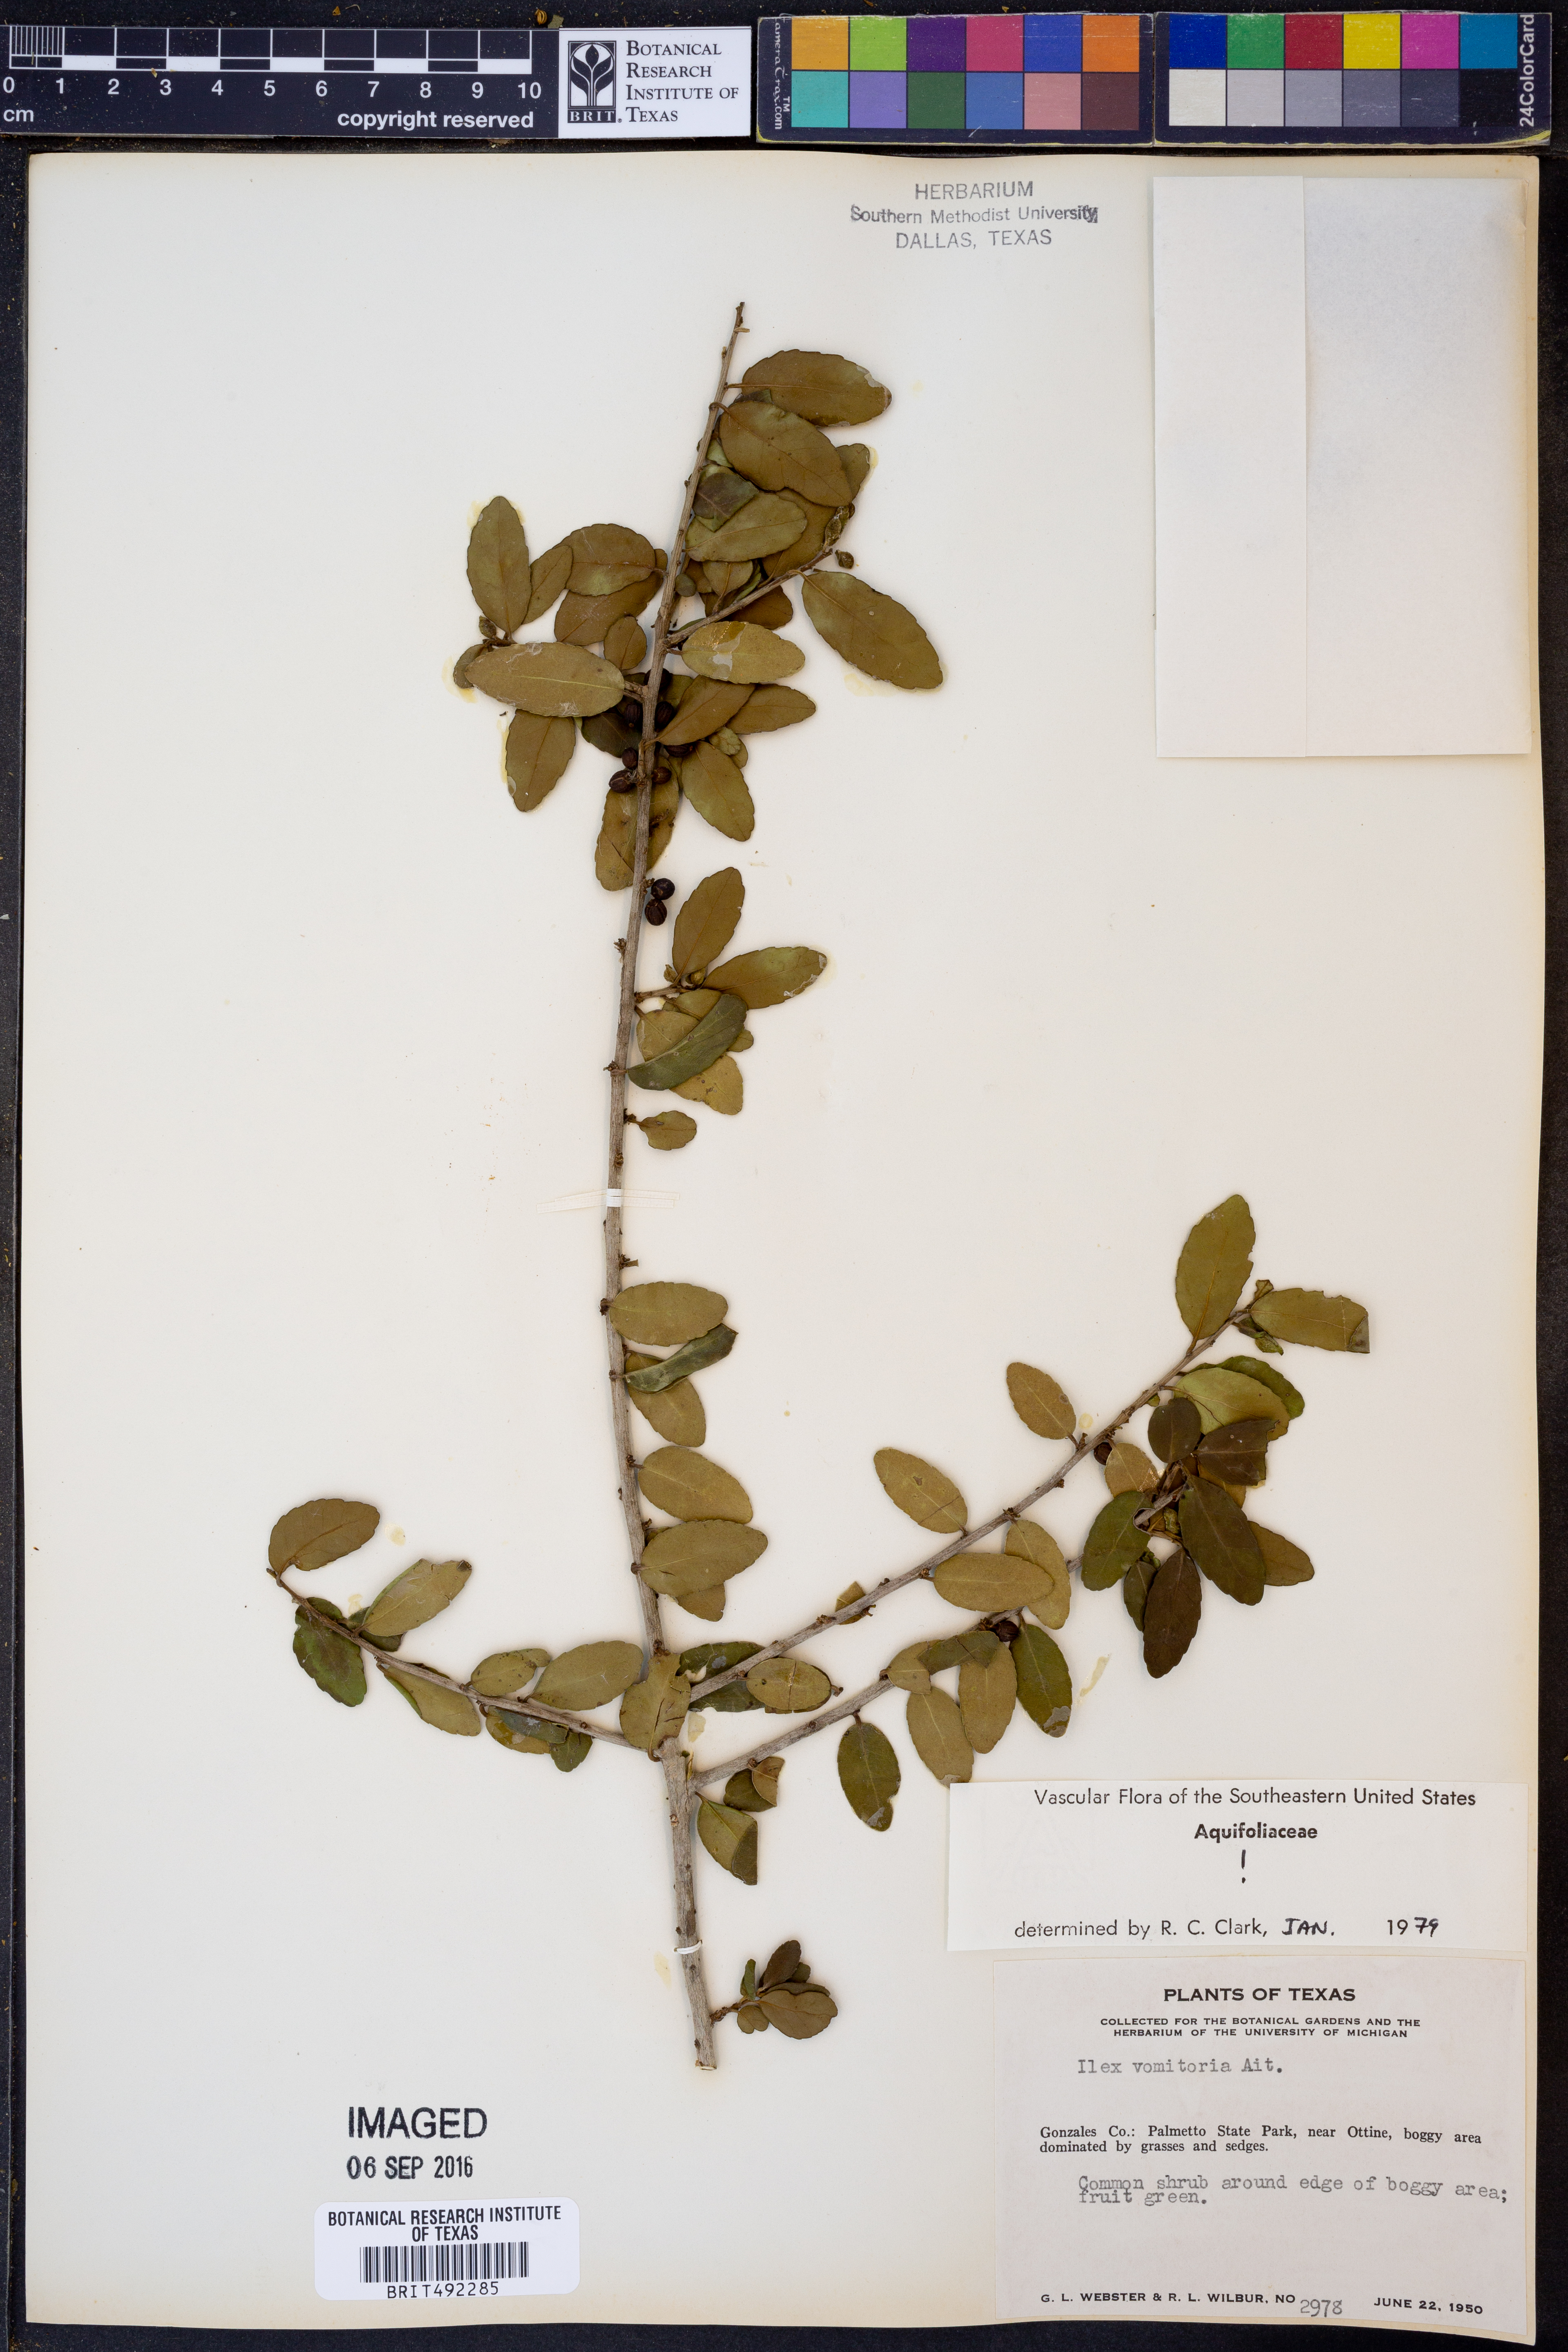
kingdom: Plantae
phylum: Tracheophyta
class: Magnoliopsida
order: Aquifoliales
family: Aquifoliaceae
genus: Ilex
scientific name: Ilex vomitoria
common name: Yaupon holly
